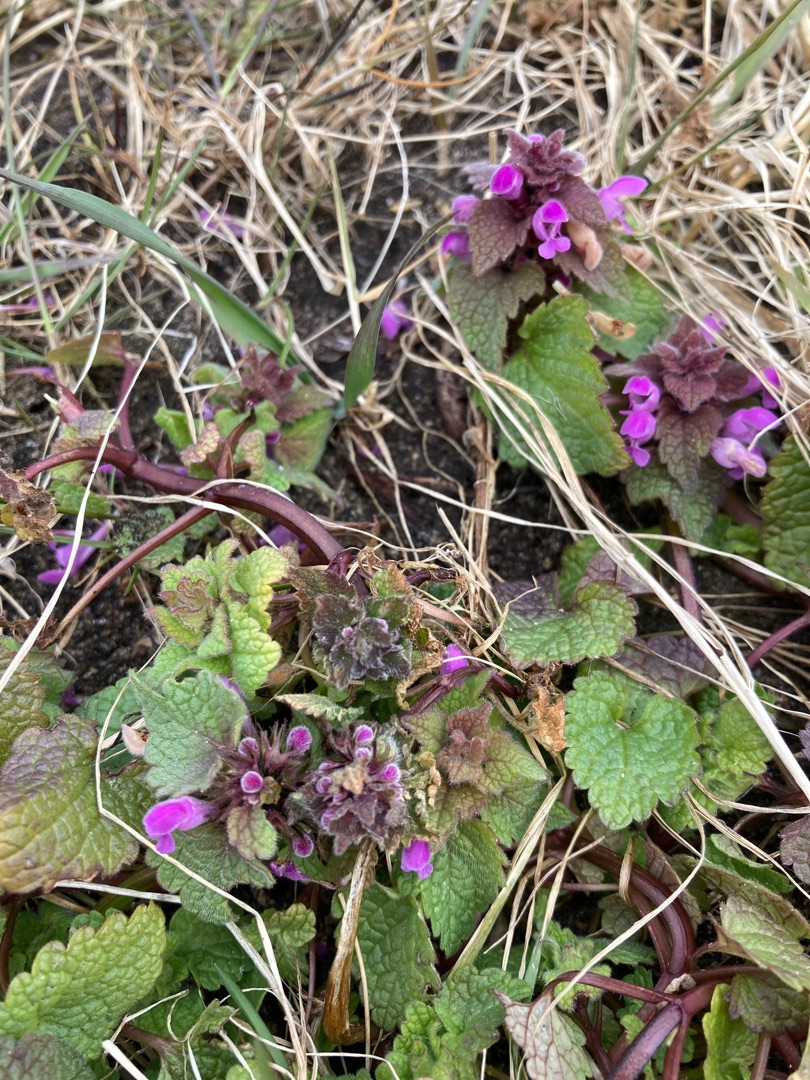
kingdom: Plantae
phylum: Tracheophyta
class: Magnoliopsida
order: Lamiales
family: Lamiaceae
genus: Lamium
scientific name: Lamium purpureum
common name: Rød tvetand
